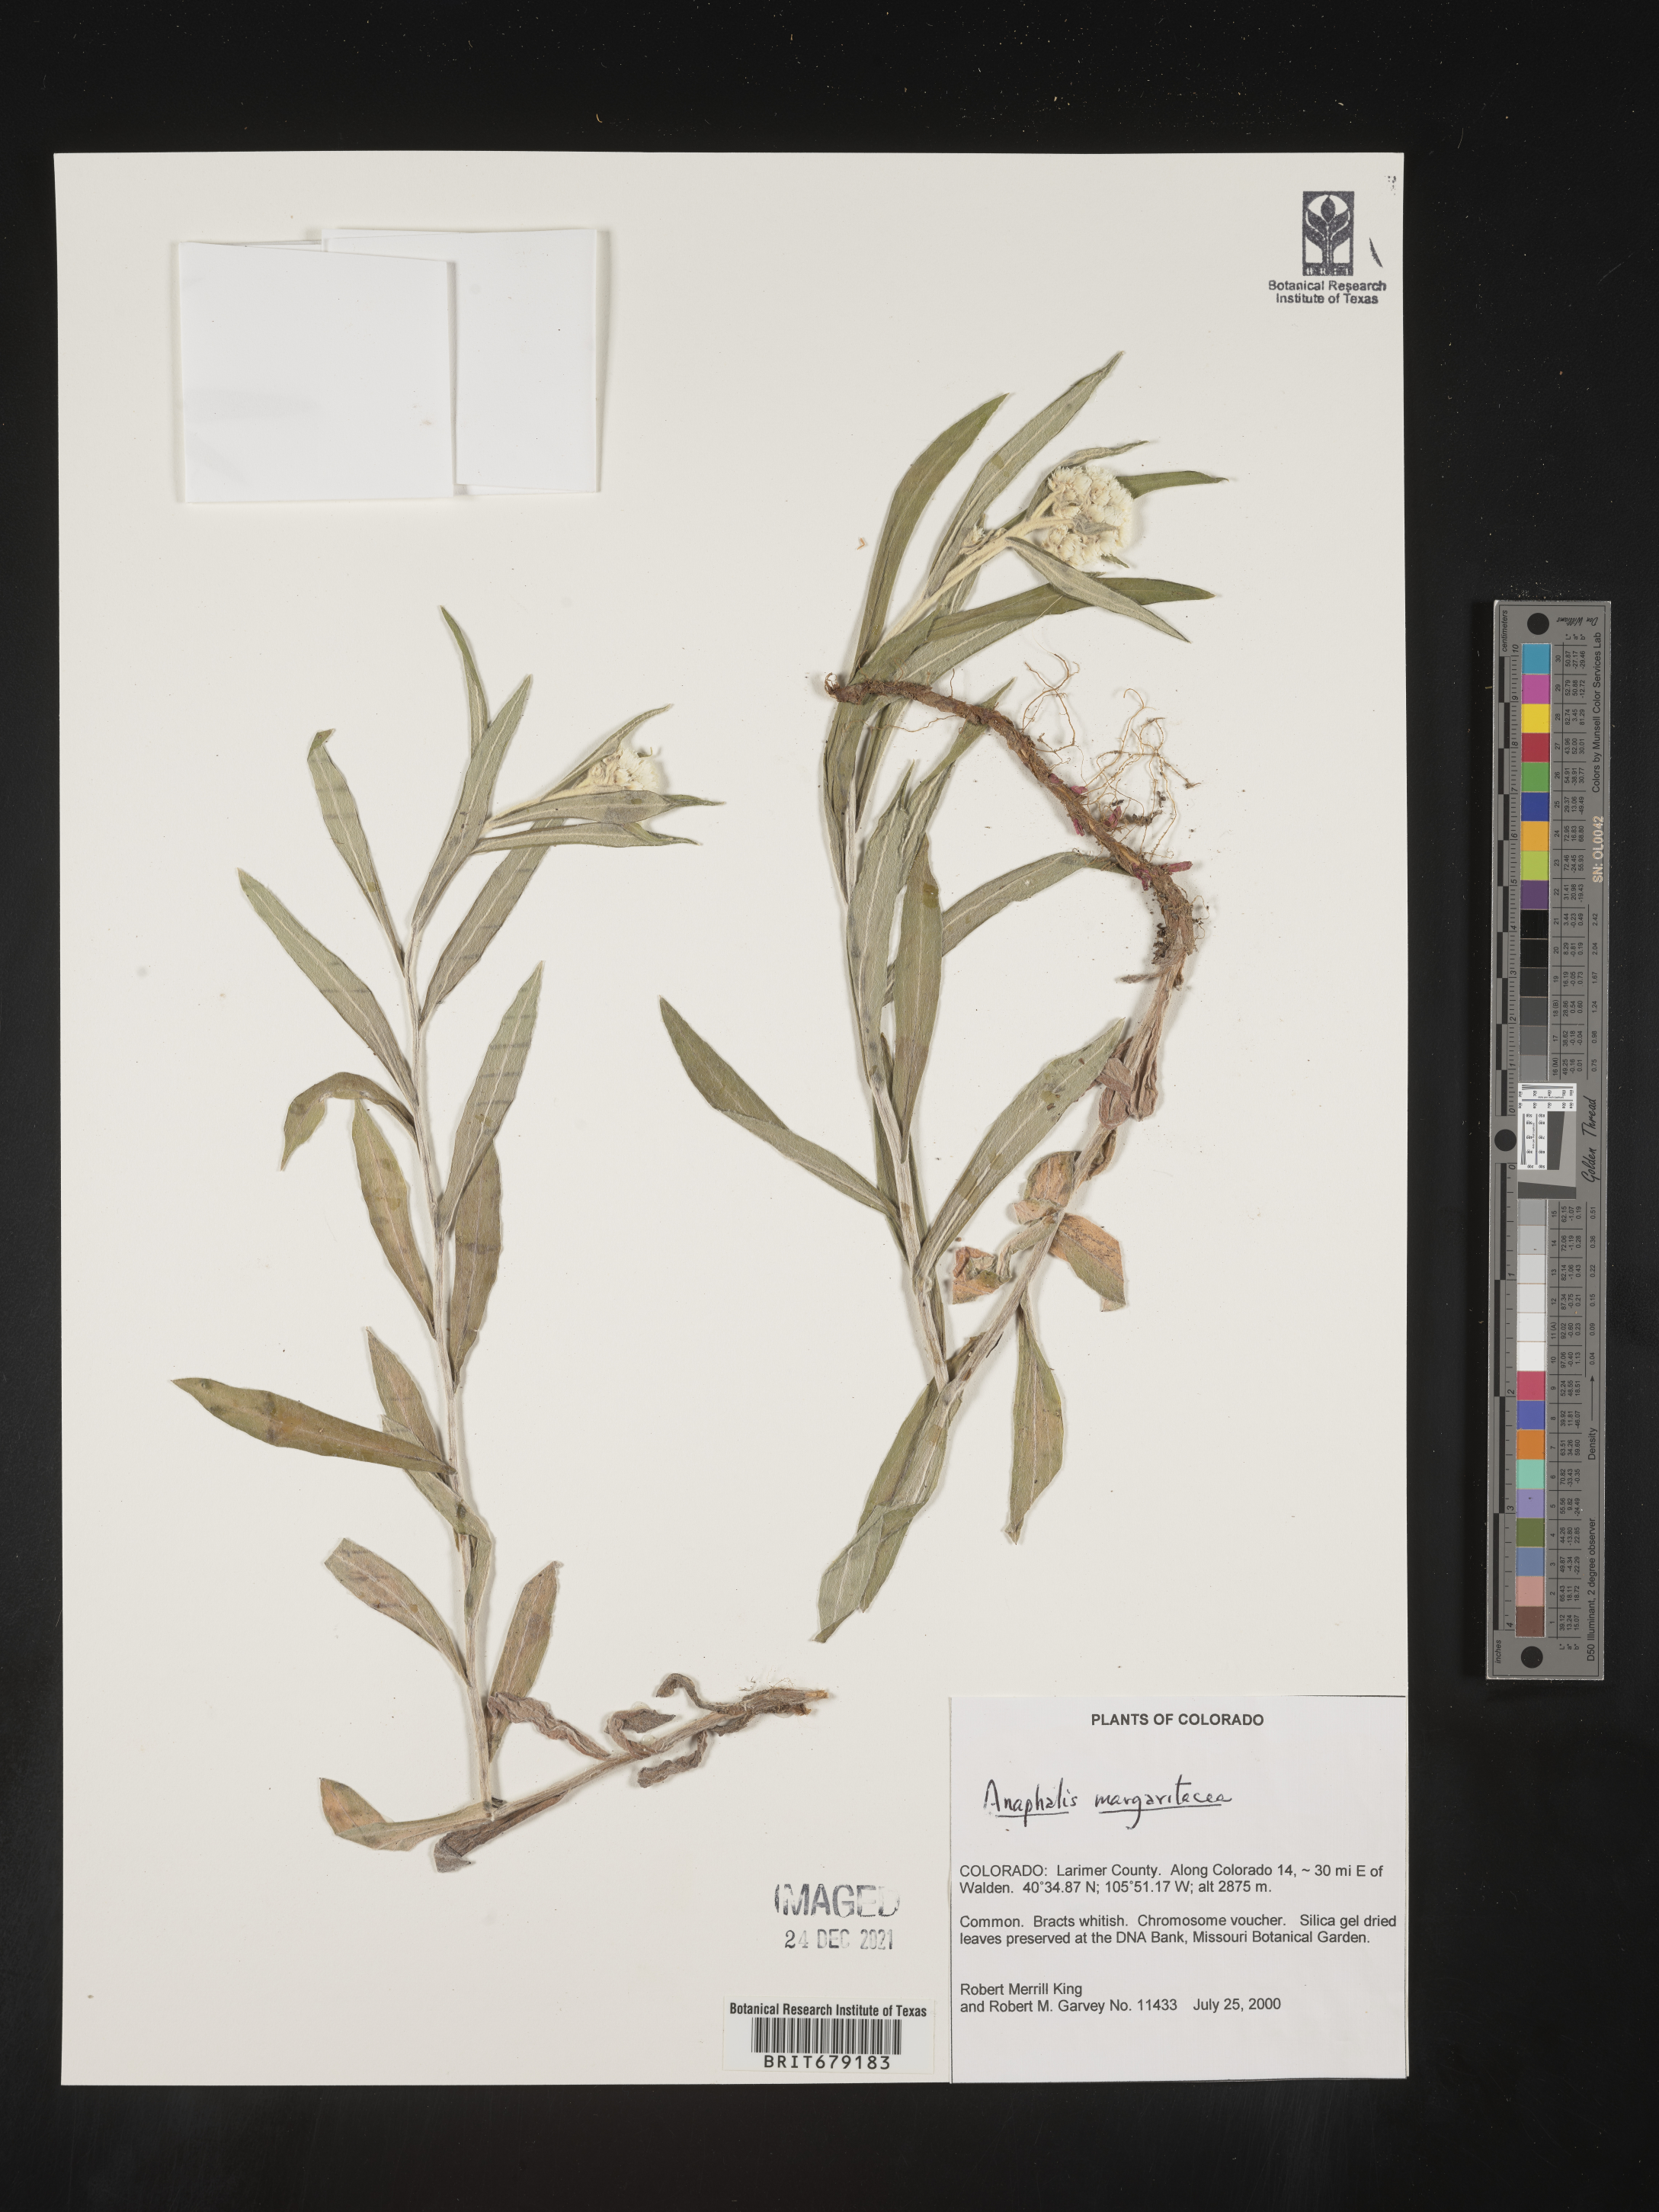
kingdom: Plantae
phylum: Tracheophyta
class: Magnoliopsida
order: Asterales
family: Asteraceae
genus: Anaphalis
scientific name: Anaphalis margaritacea
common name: Pearly everlasting
